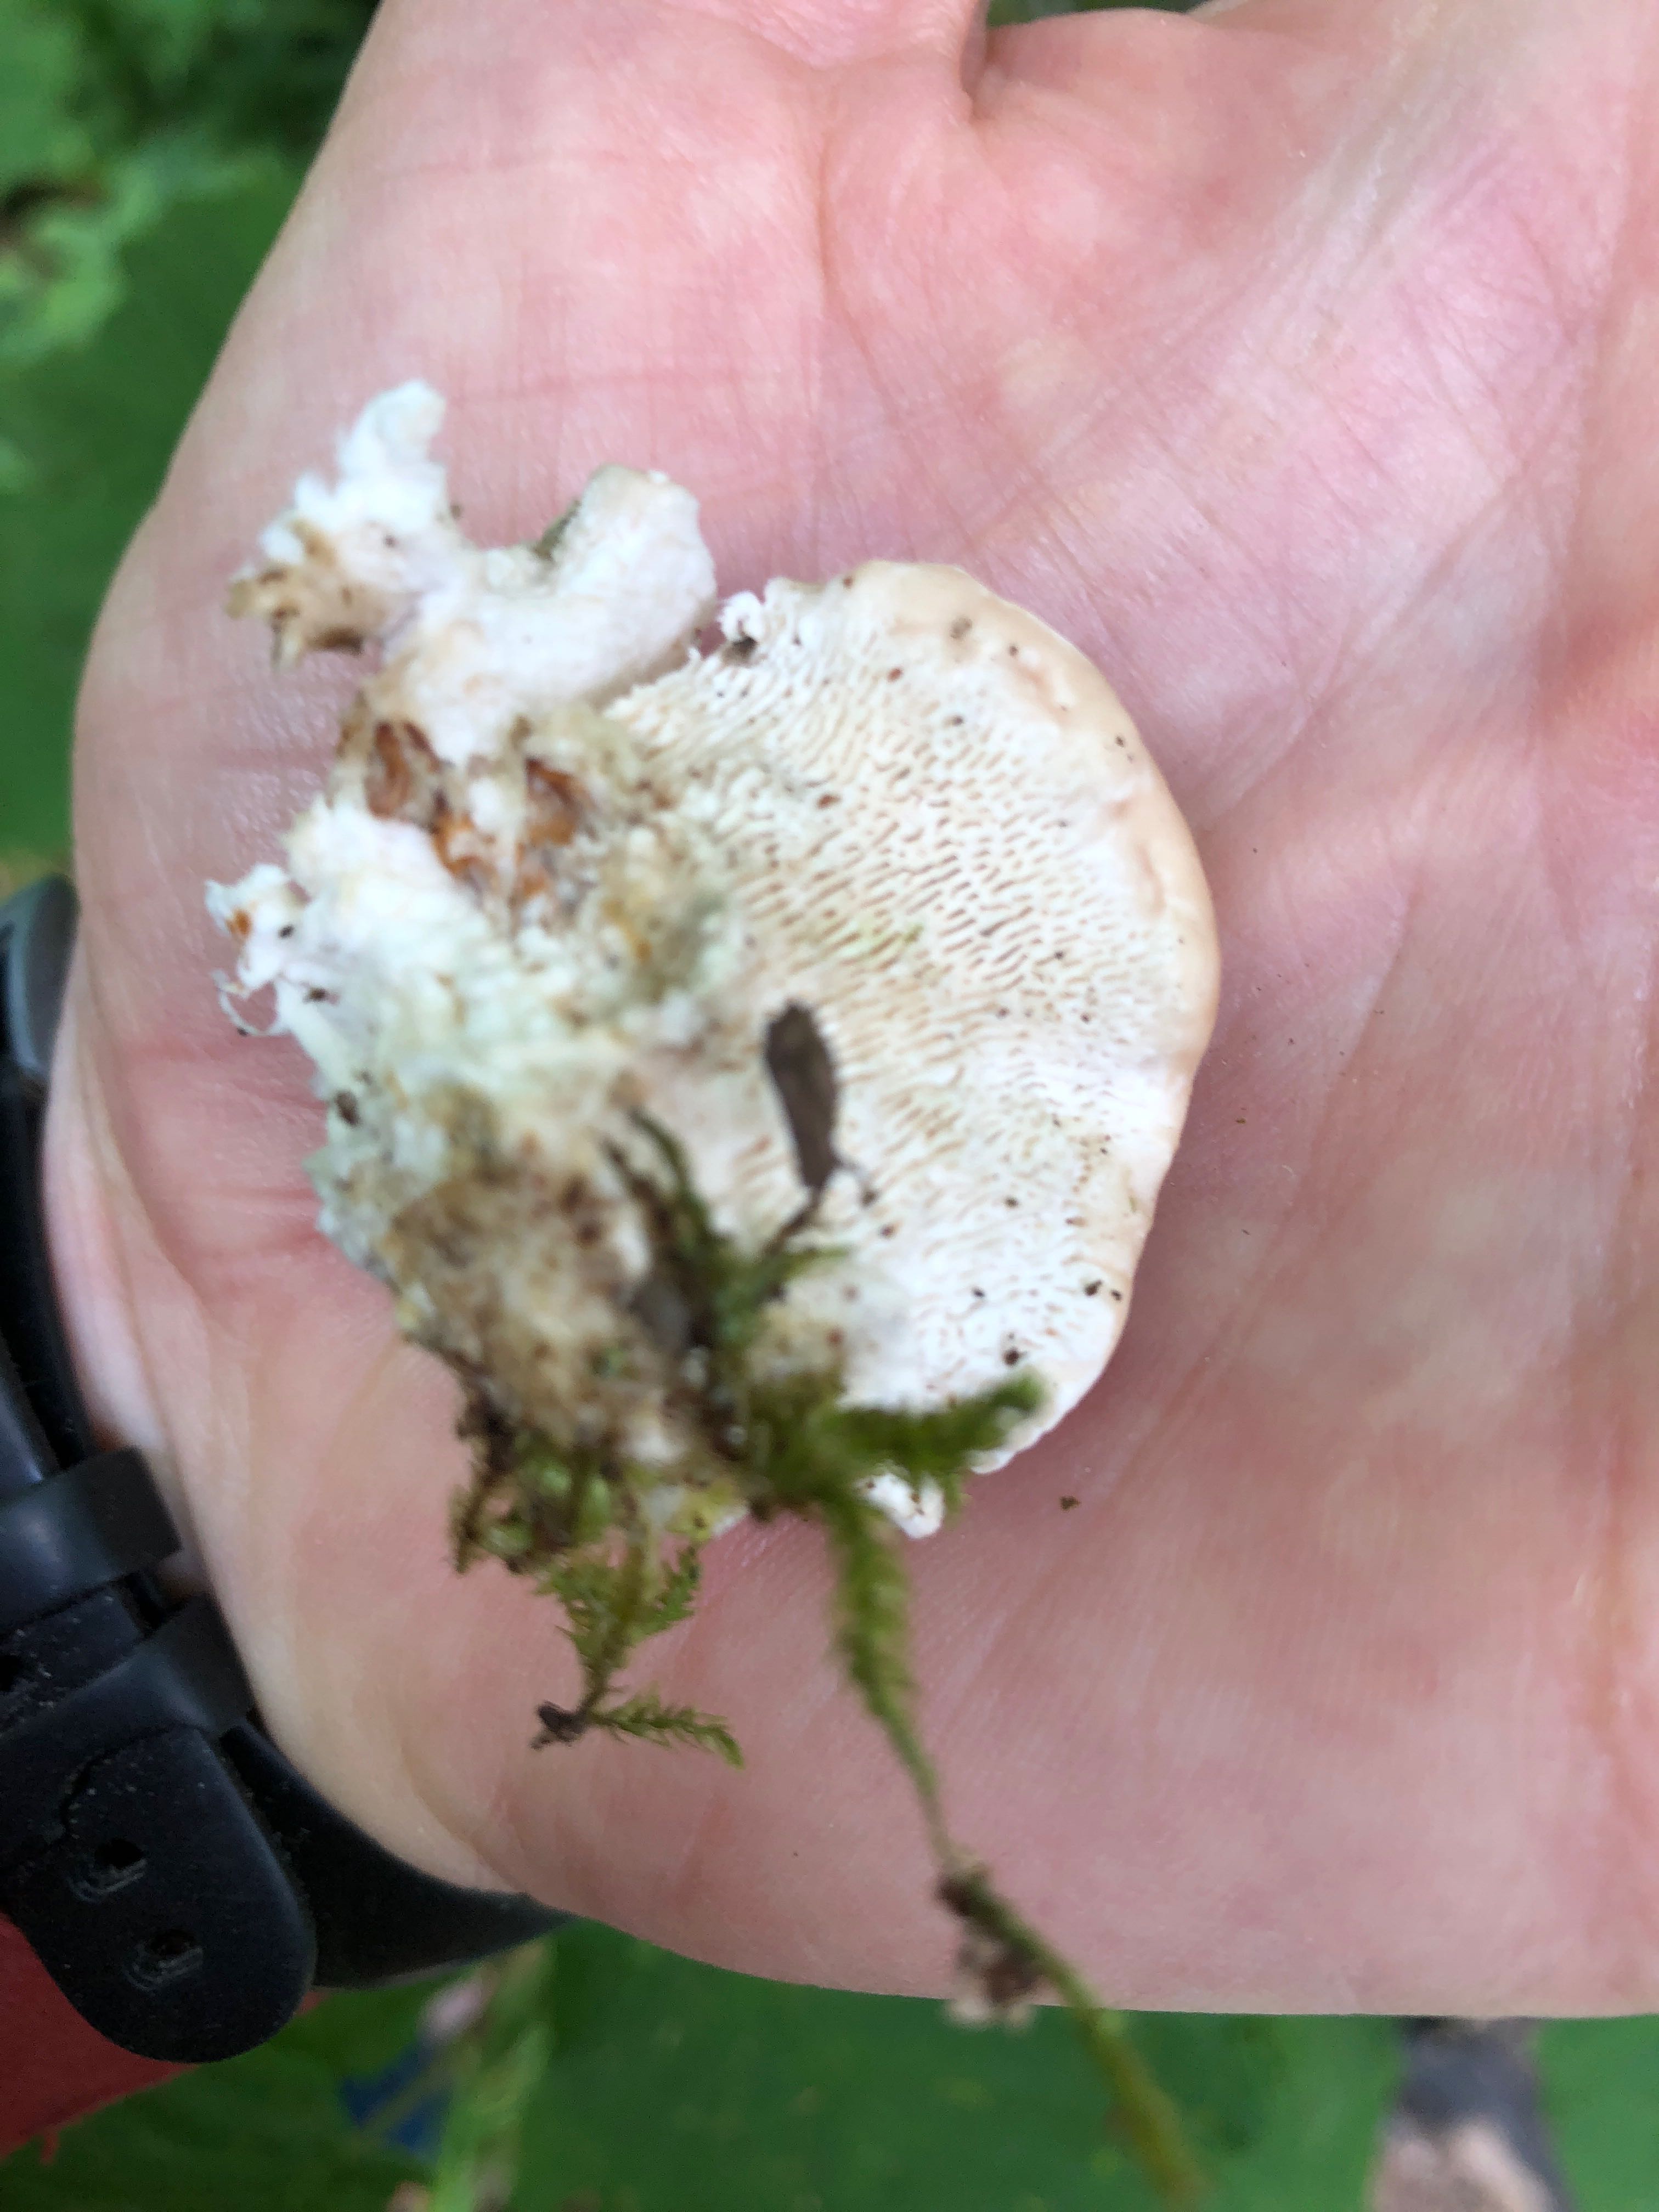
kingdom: Fungi
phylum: Basidiomycota
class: Agaricomycetes
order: Polyporales
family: Polyporaceae
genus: Trametes
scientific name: Trametes gibbosa
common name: puklet læderporesvamp
